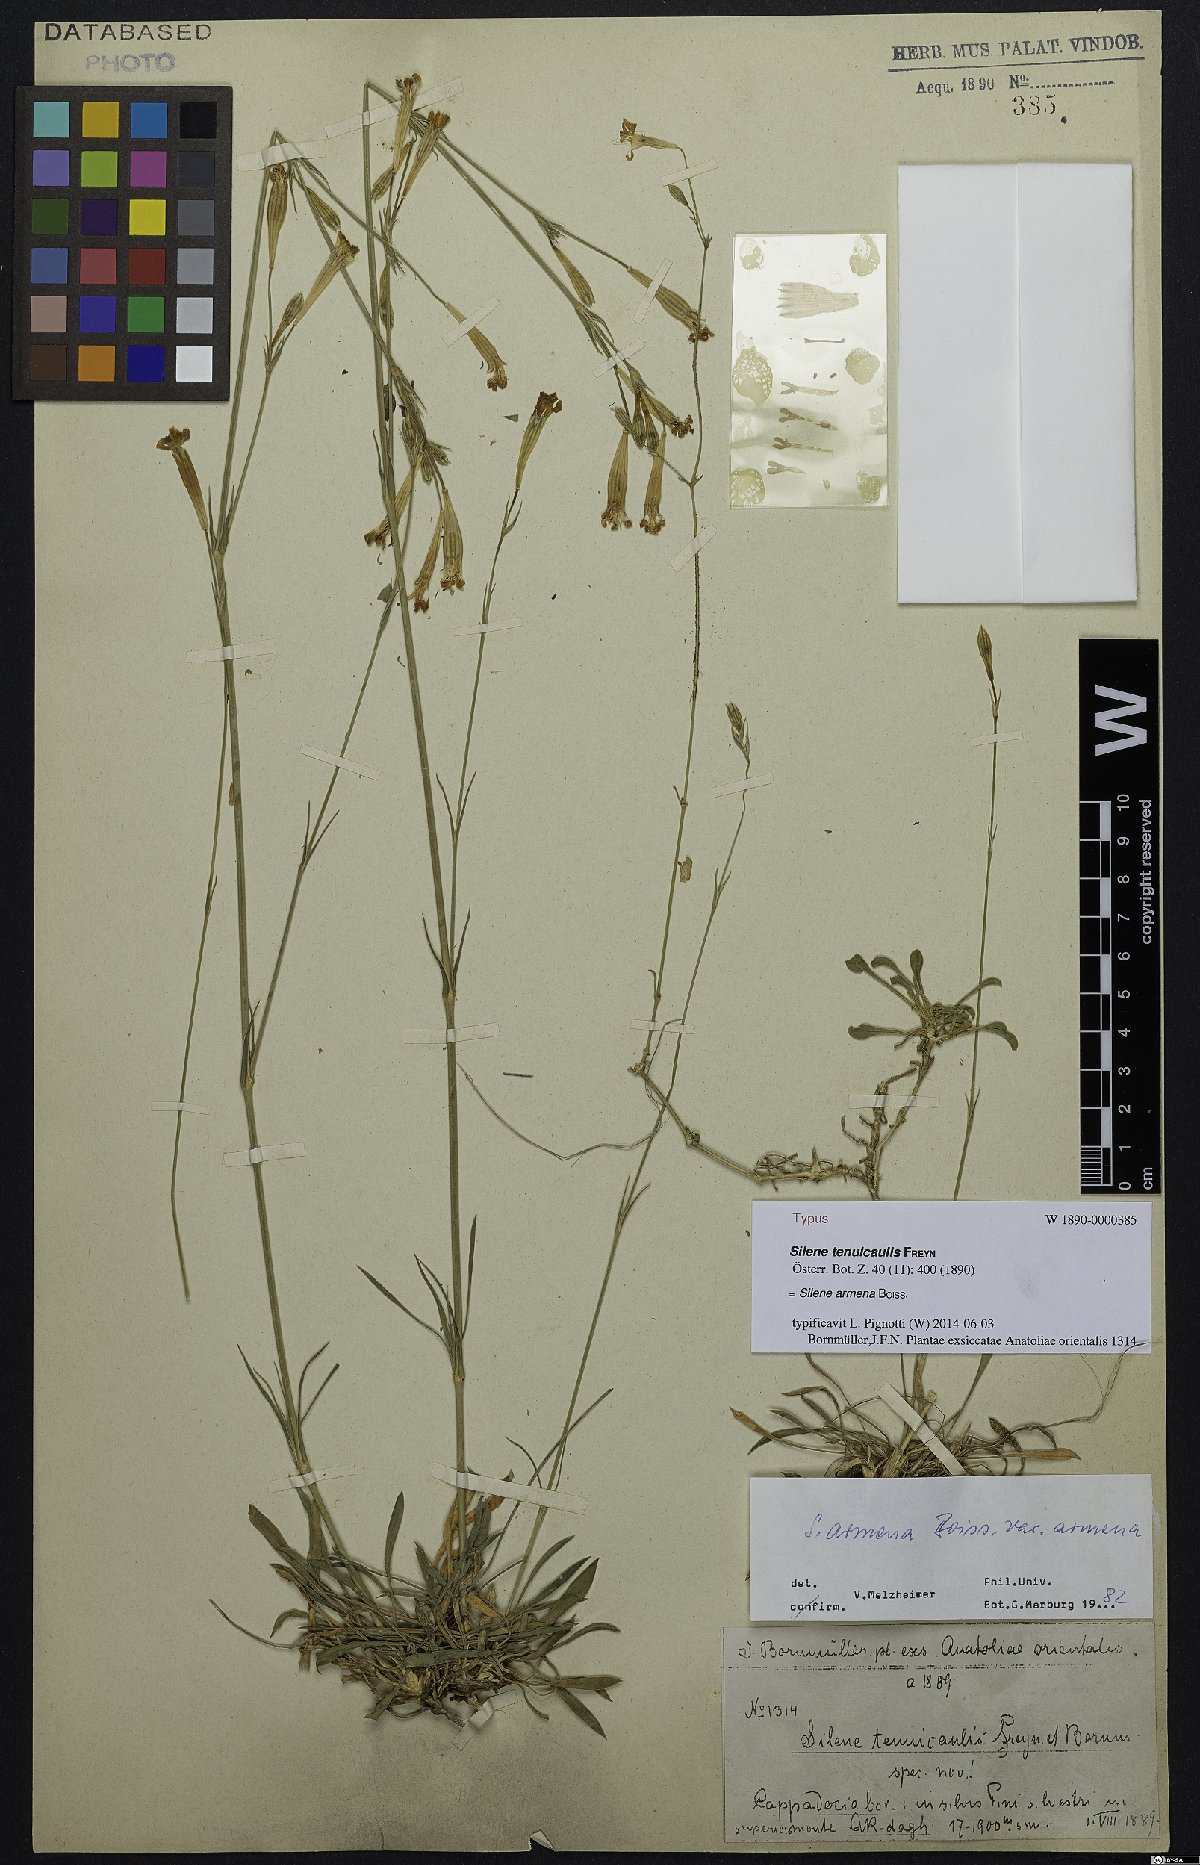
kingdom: Plantae
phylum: Tracheophyta
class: Magnoliopsida
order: Caryophyllales
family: Caryophyllaceae
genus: Silene
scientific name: Silene armena
